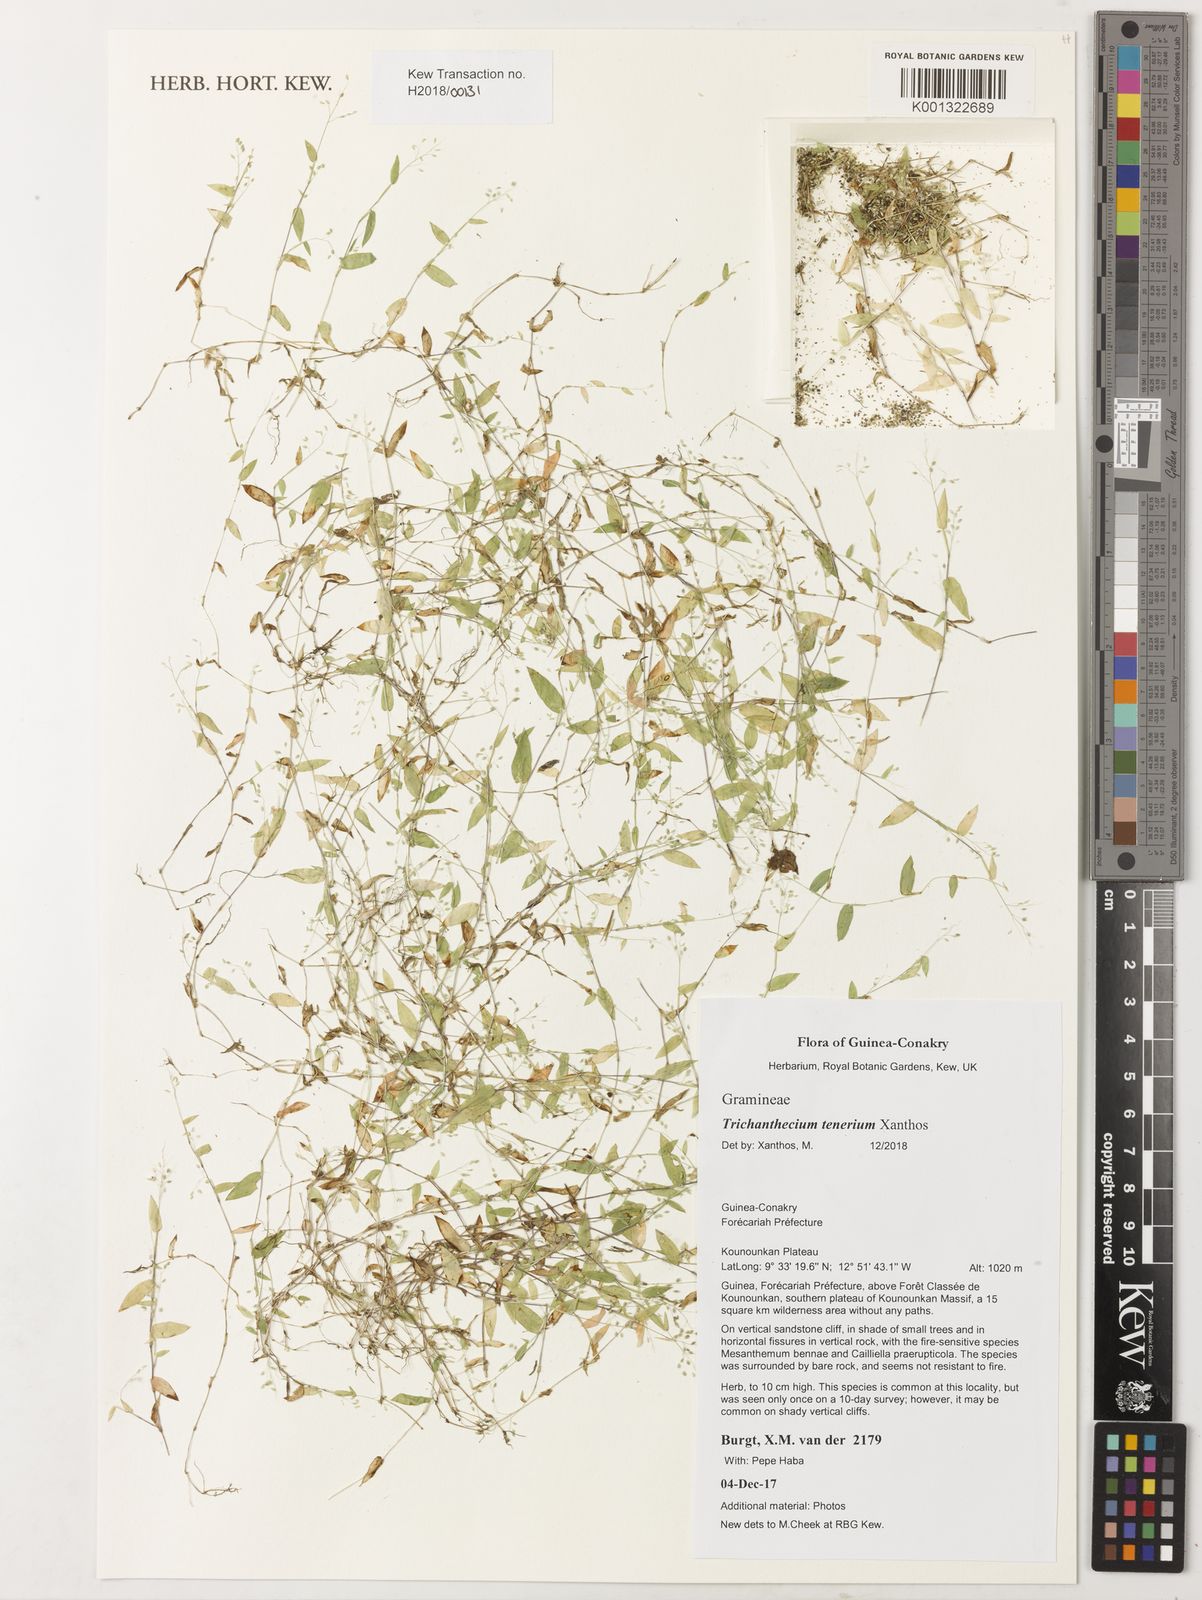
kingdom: Plantae
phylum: Tracheophyta
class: Liliopsida
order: Poales
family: Poaceae
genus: Trichanthecium
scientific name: Trichanthecium
